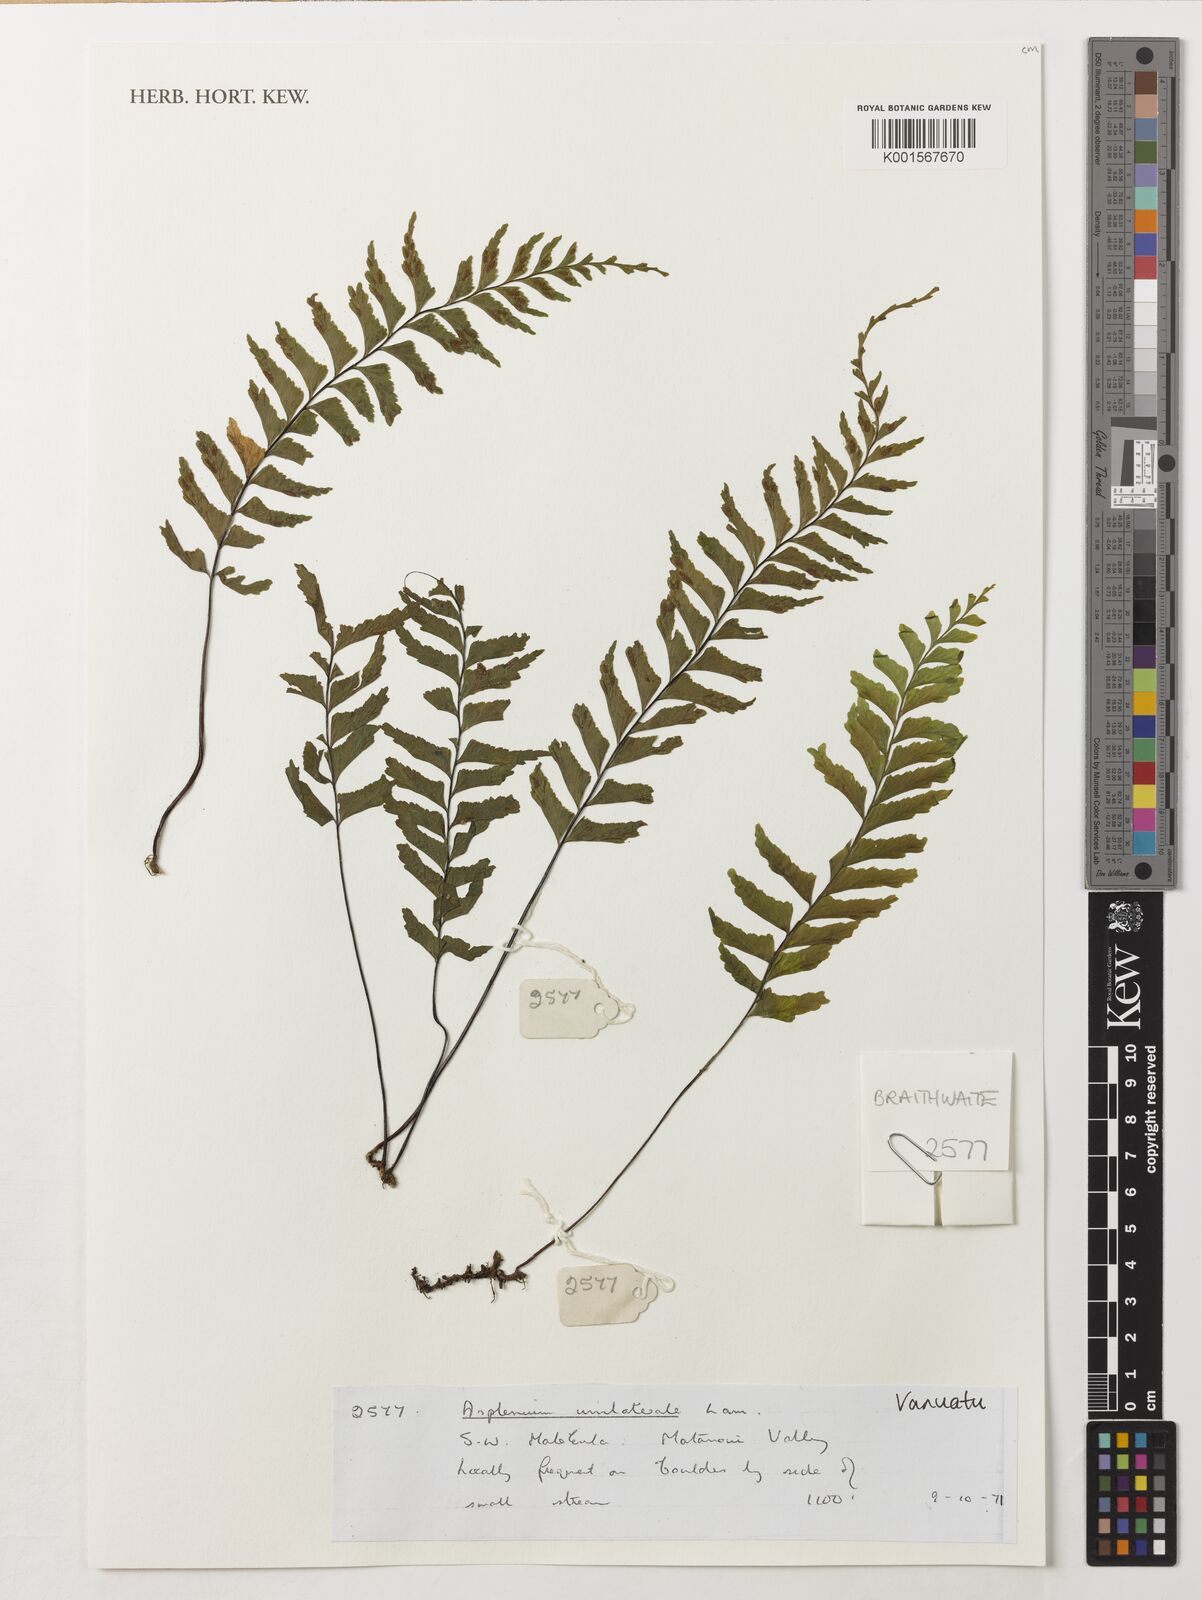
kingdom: Plantae
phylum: Tracheophyta
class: Polypodiopsida
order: Polypodiales
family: Aspleniaceae
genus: Hymenasplenium
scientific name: Hymenasplenium unilaterale
